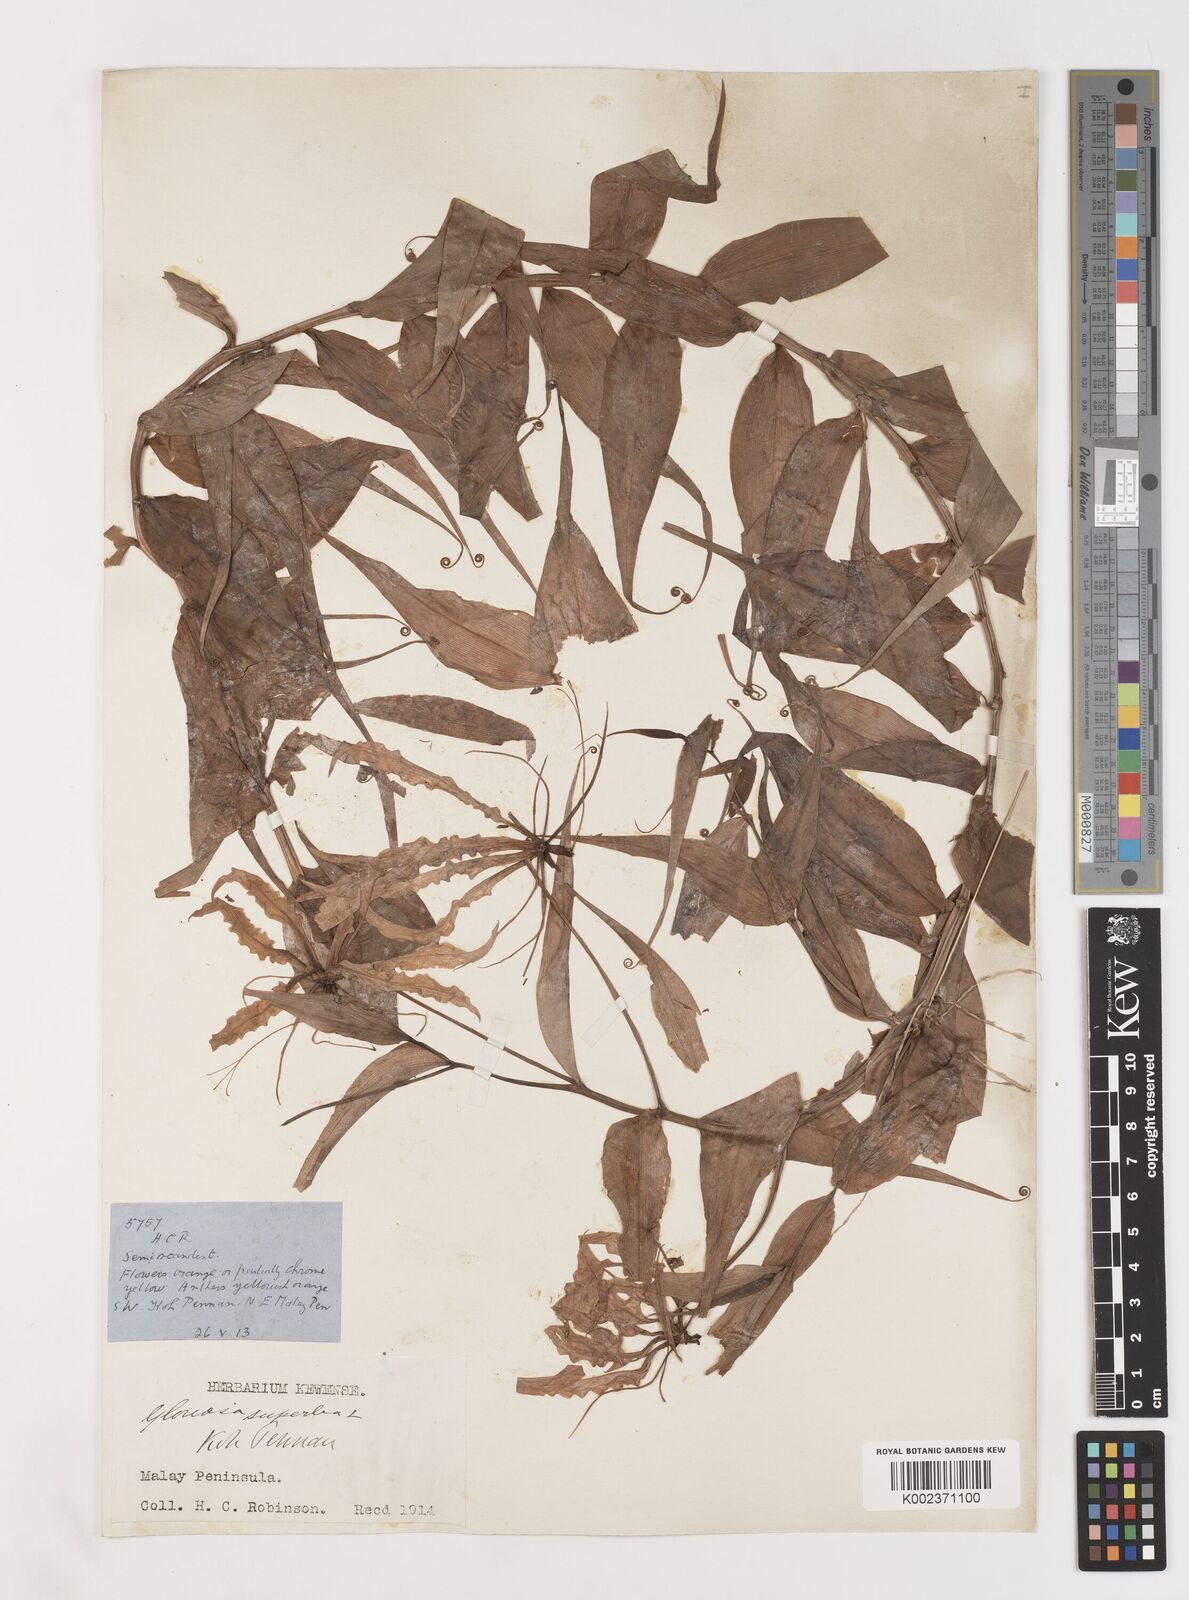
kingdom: Plantae
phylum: Tracheophyta
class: Liliopsida
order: Liliales
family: Colchicaceae
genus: Gloriosa
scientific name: Gloriosa superba
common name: Flame lily
